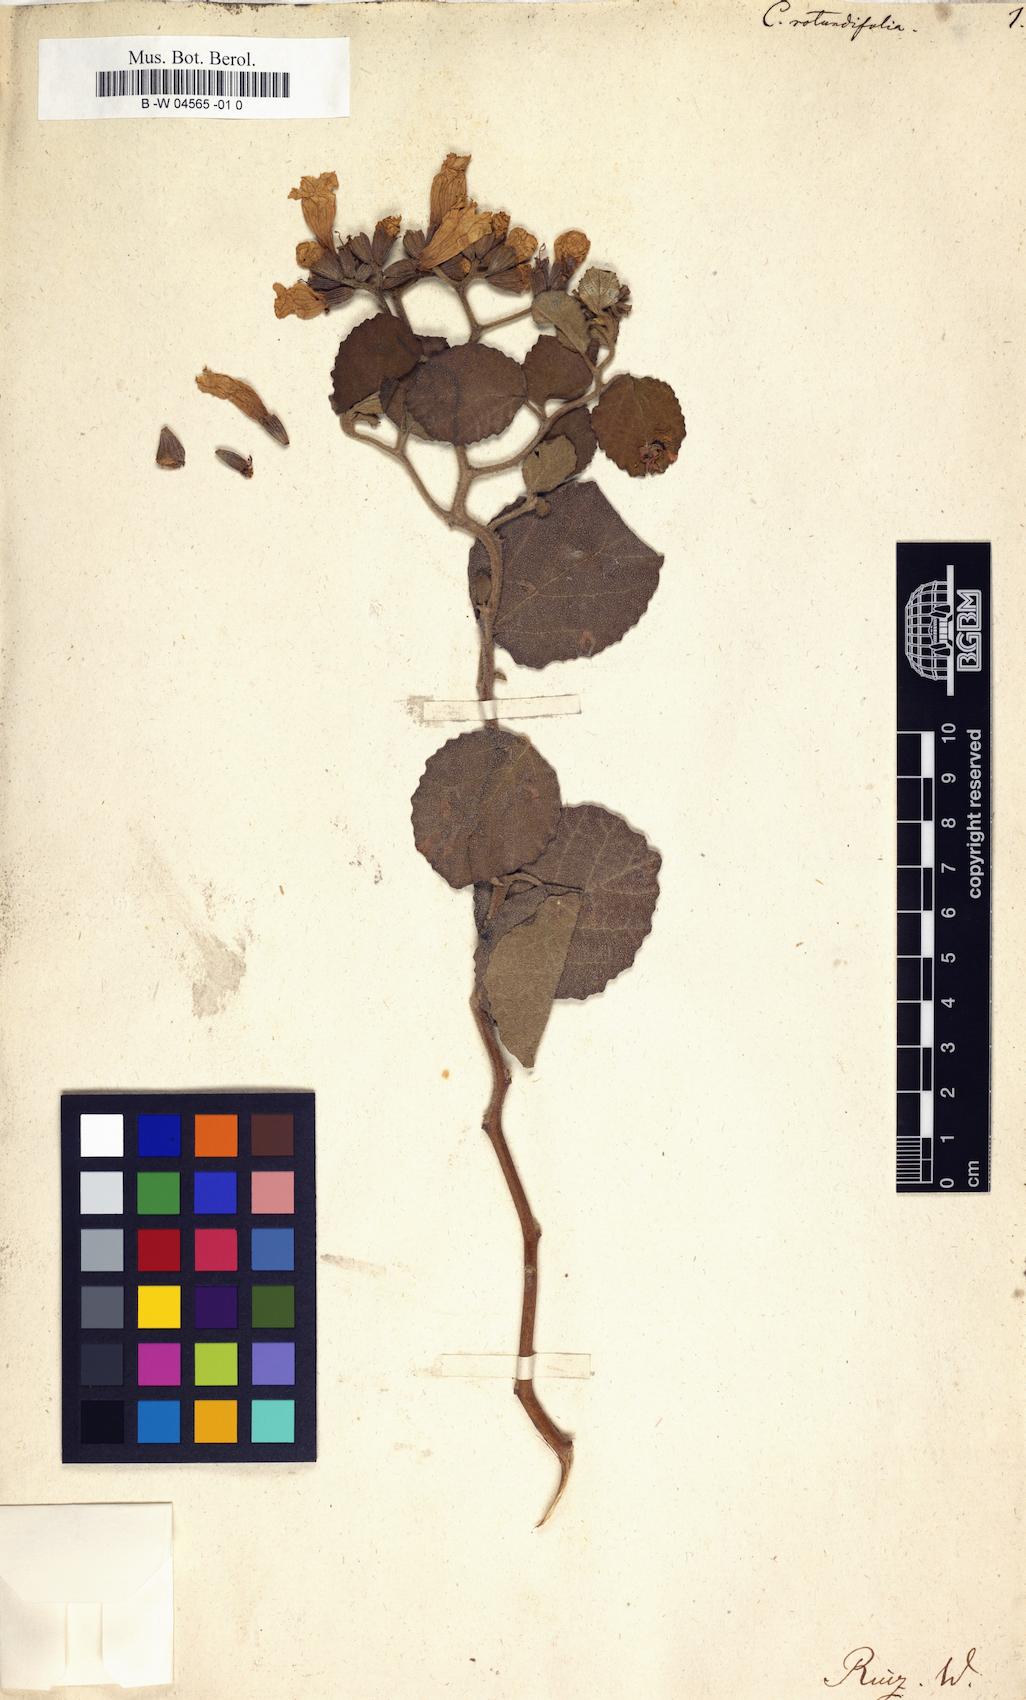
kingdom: Plantae
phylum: Tracheophyta
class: Magnoliopsida
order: Boraginales
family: Cordiaceae
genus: Cordia
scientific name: Cordia fragrantissima
